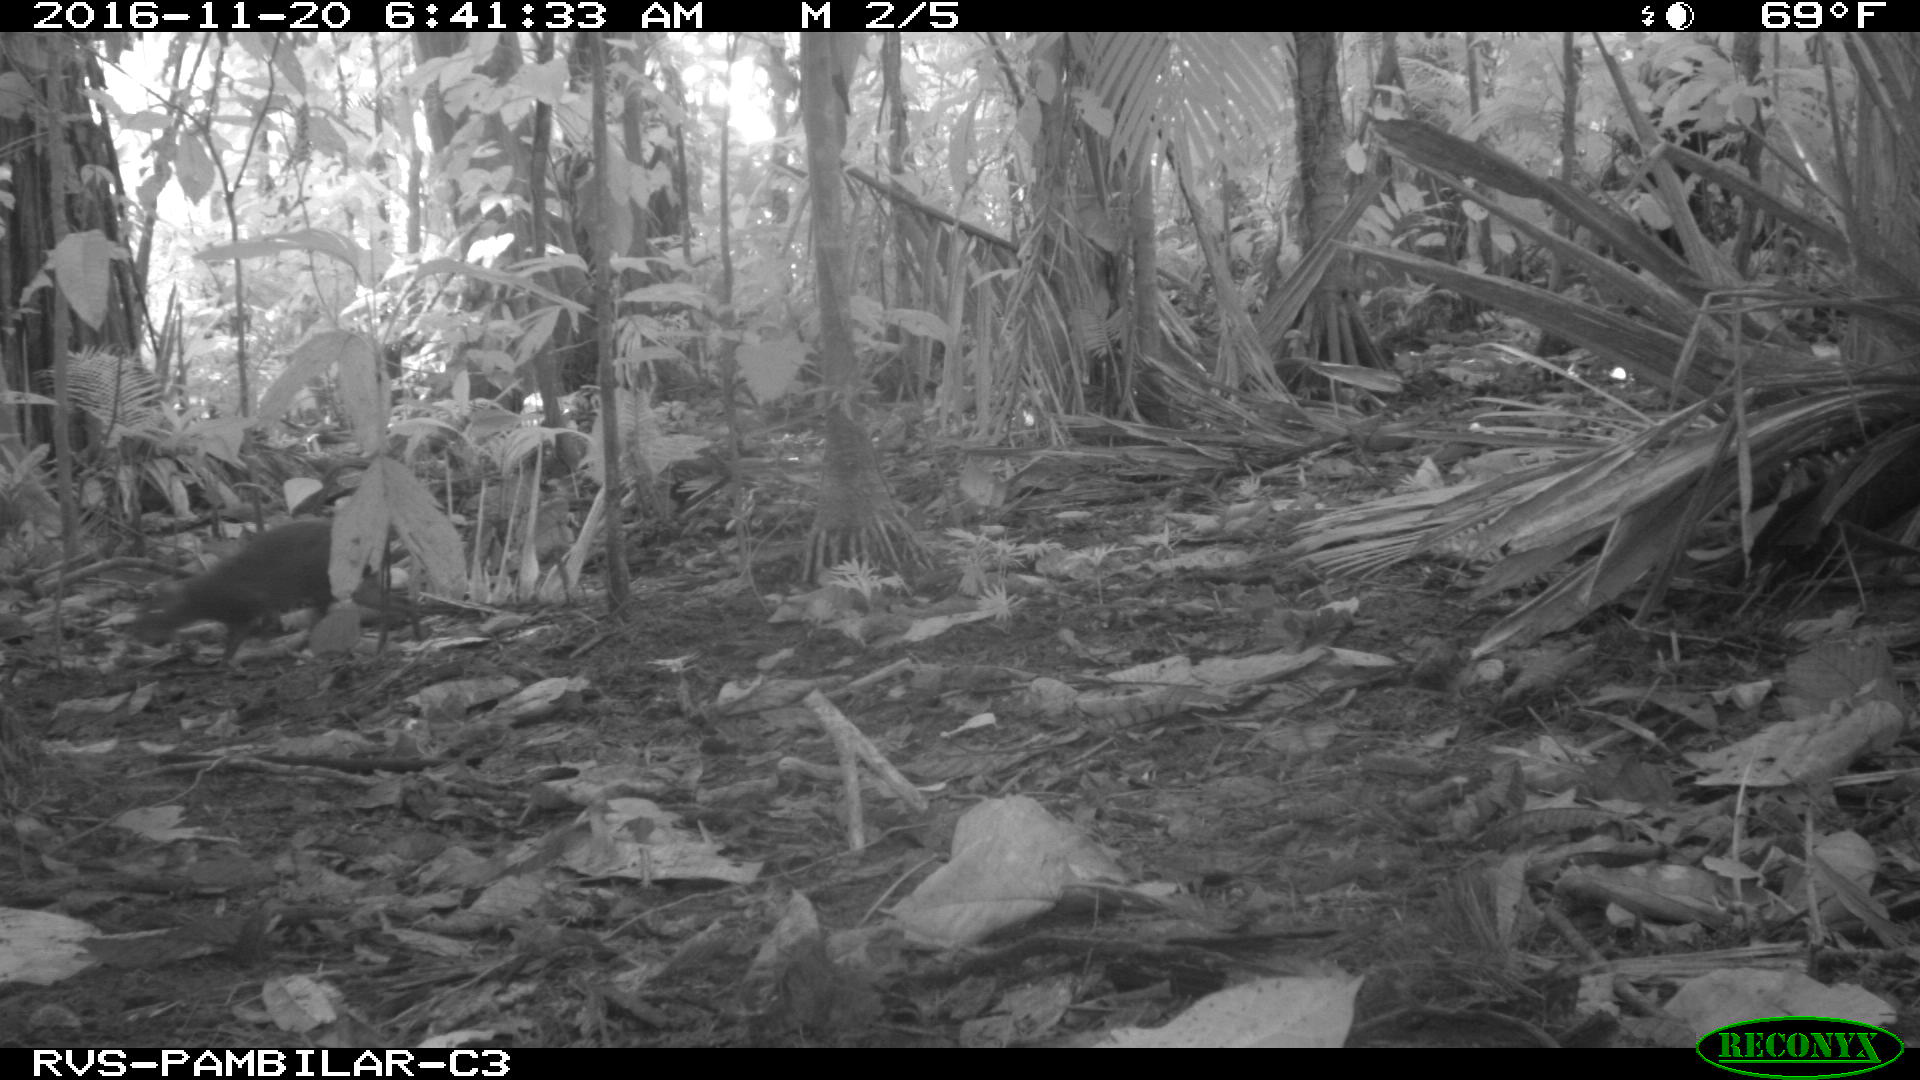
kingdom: Animalia
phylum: Chordata
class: Mammalia
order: Rodentia
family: Dasyproctidae
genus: Dasyprocta
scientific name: Dasyprocta punctata
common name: Central american agouti
